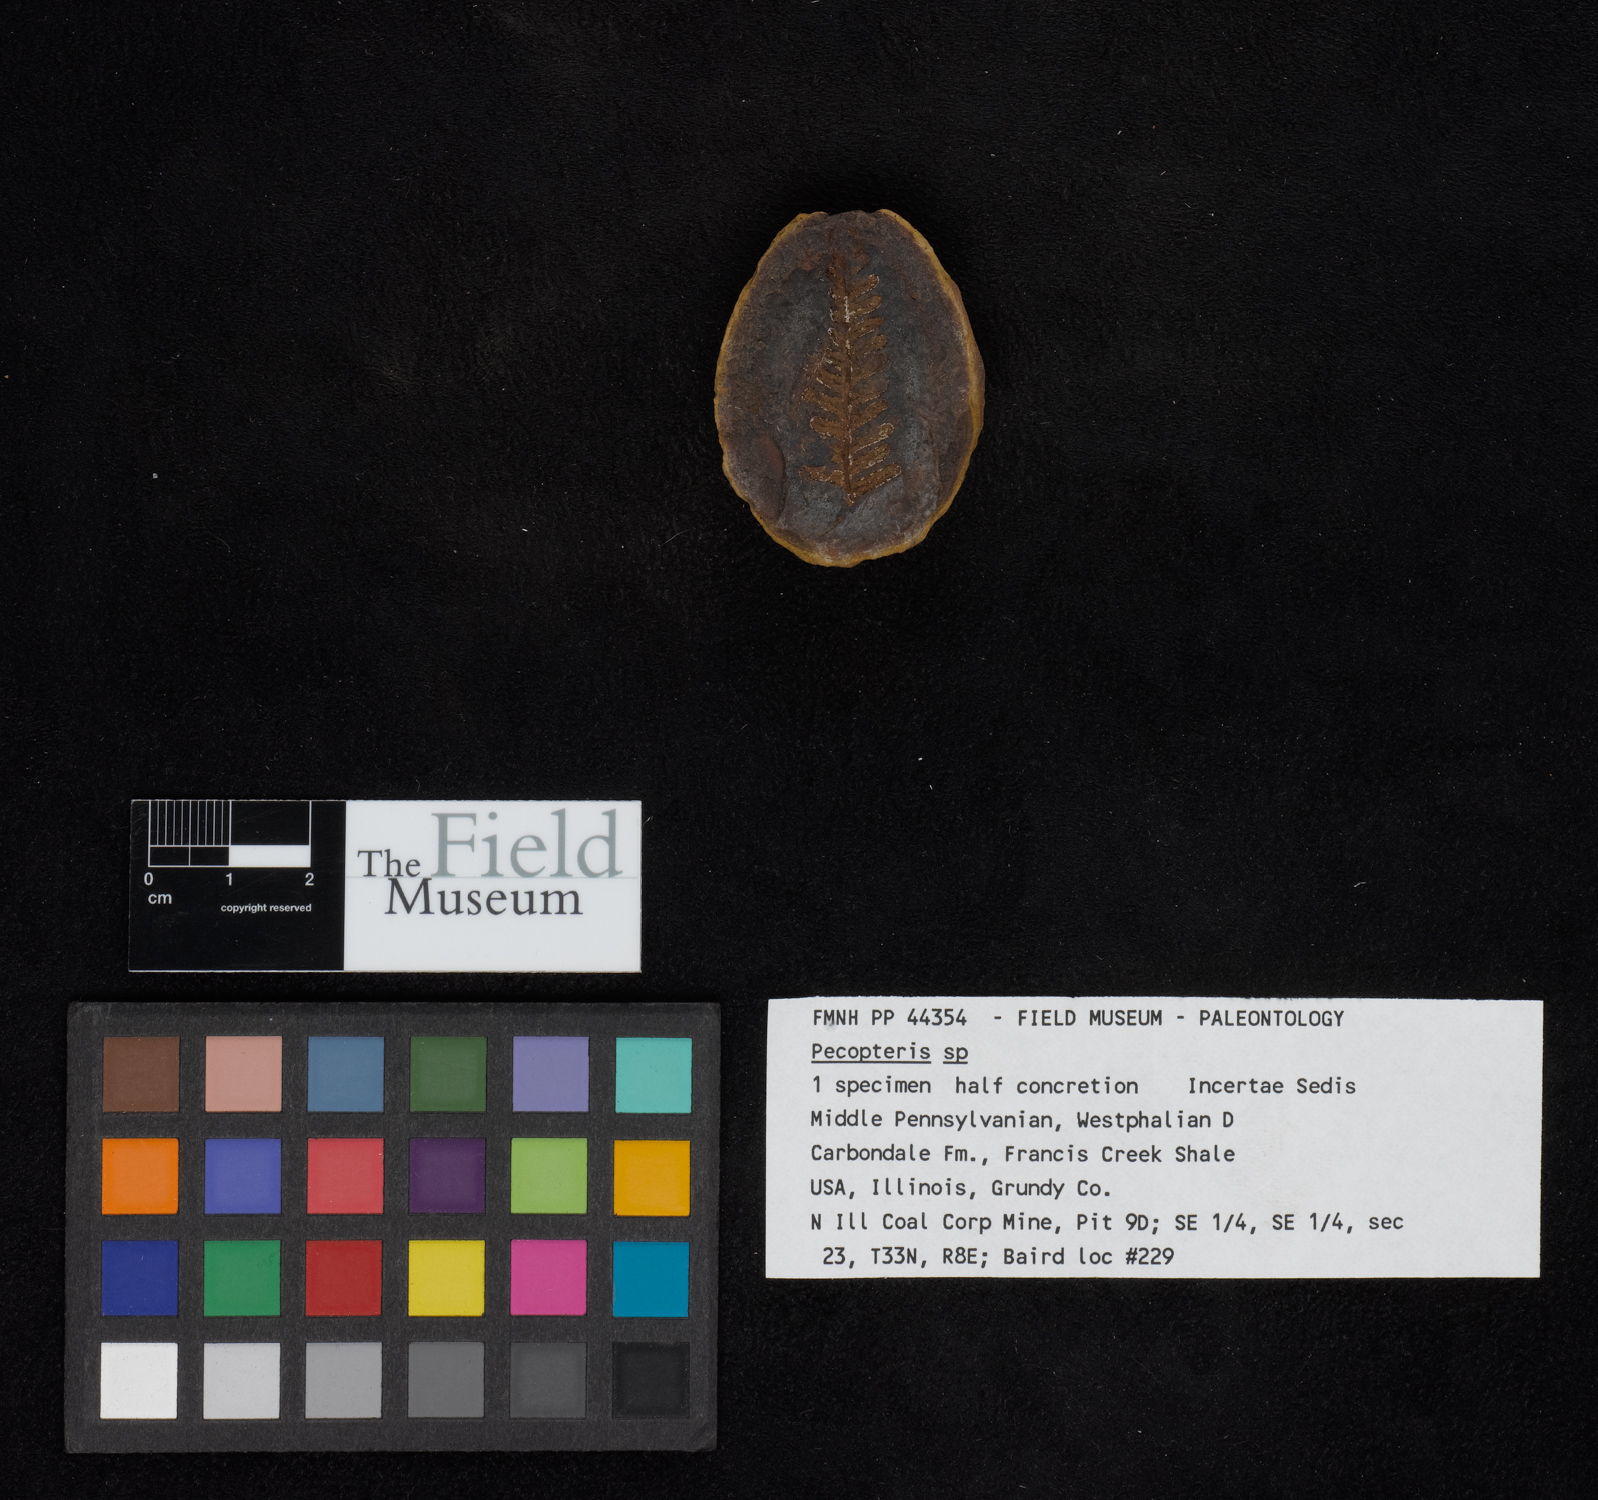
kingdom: Plantae
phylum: Tracheophyta
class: Polypodiopsida
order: Marattiales
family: Asterothecaceae
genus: Pecopteris
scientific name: Pecopteris
